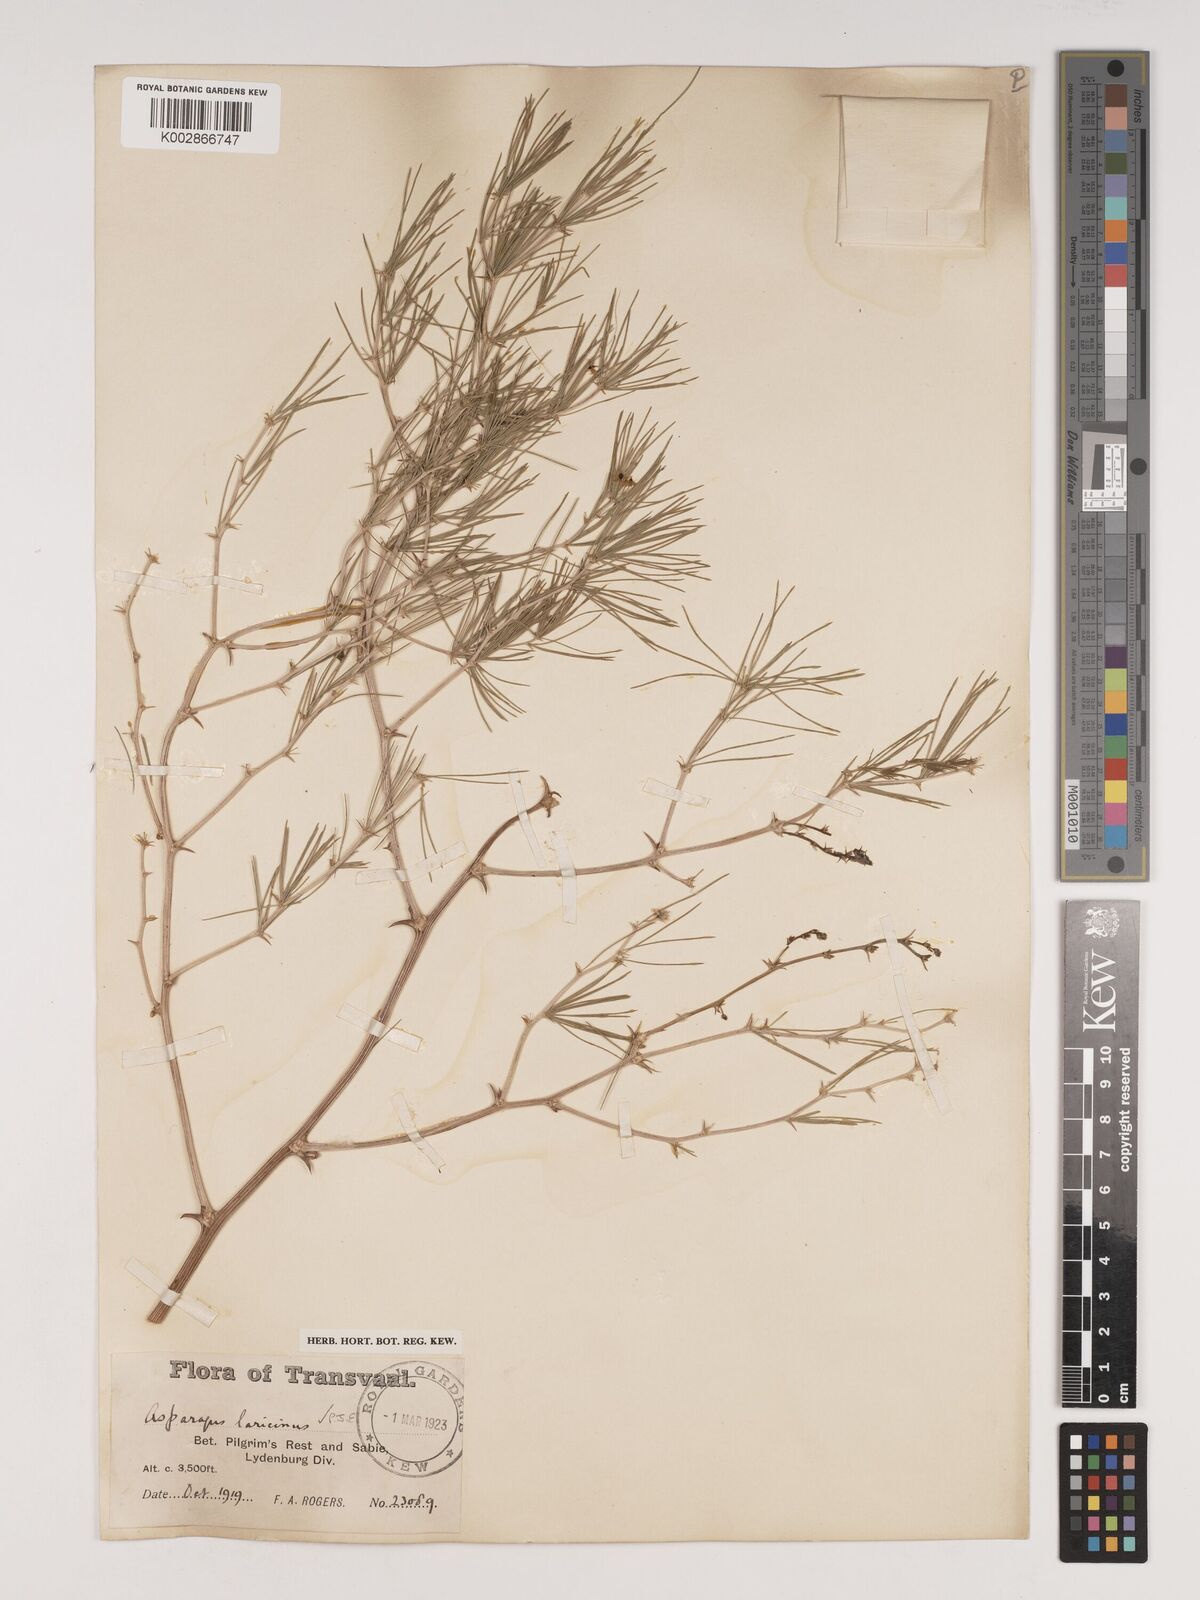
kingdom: Plantae
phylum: Tracheophyta
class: Liliopsida
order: Asparagales
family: Asparagaceae
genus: Asparagus
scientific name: Asparagus laricinus
